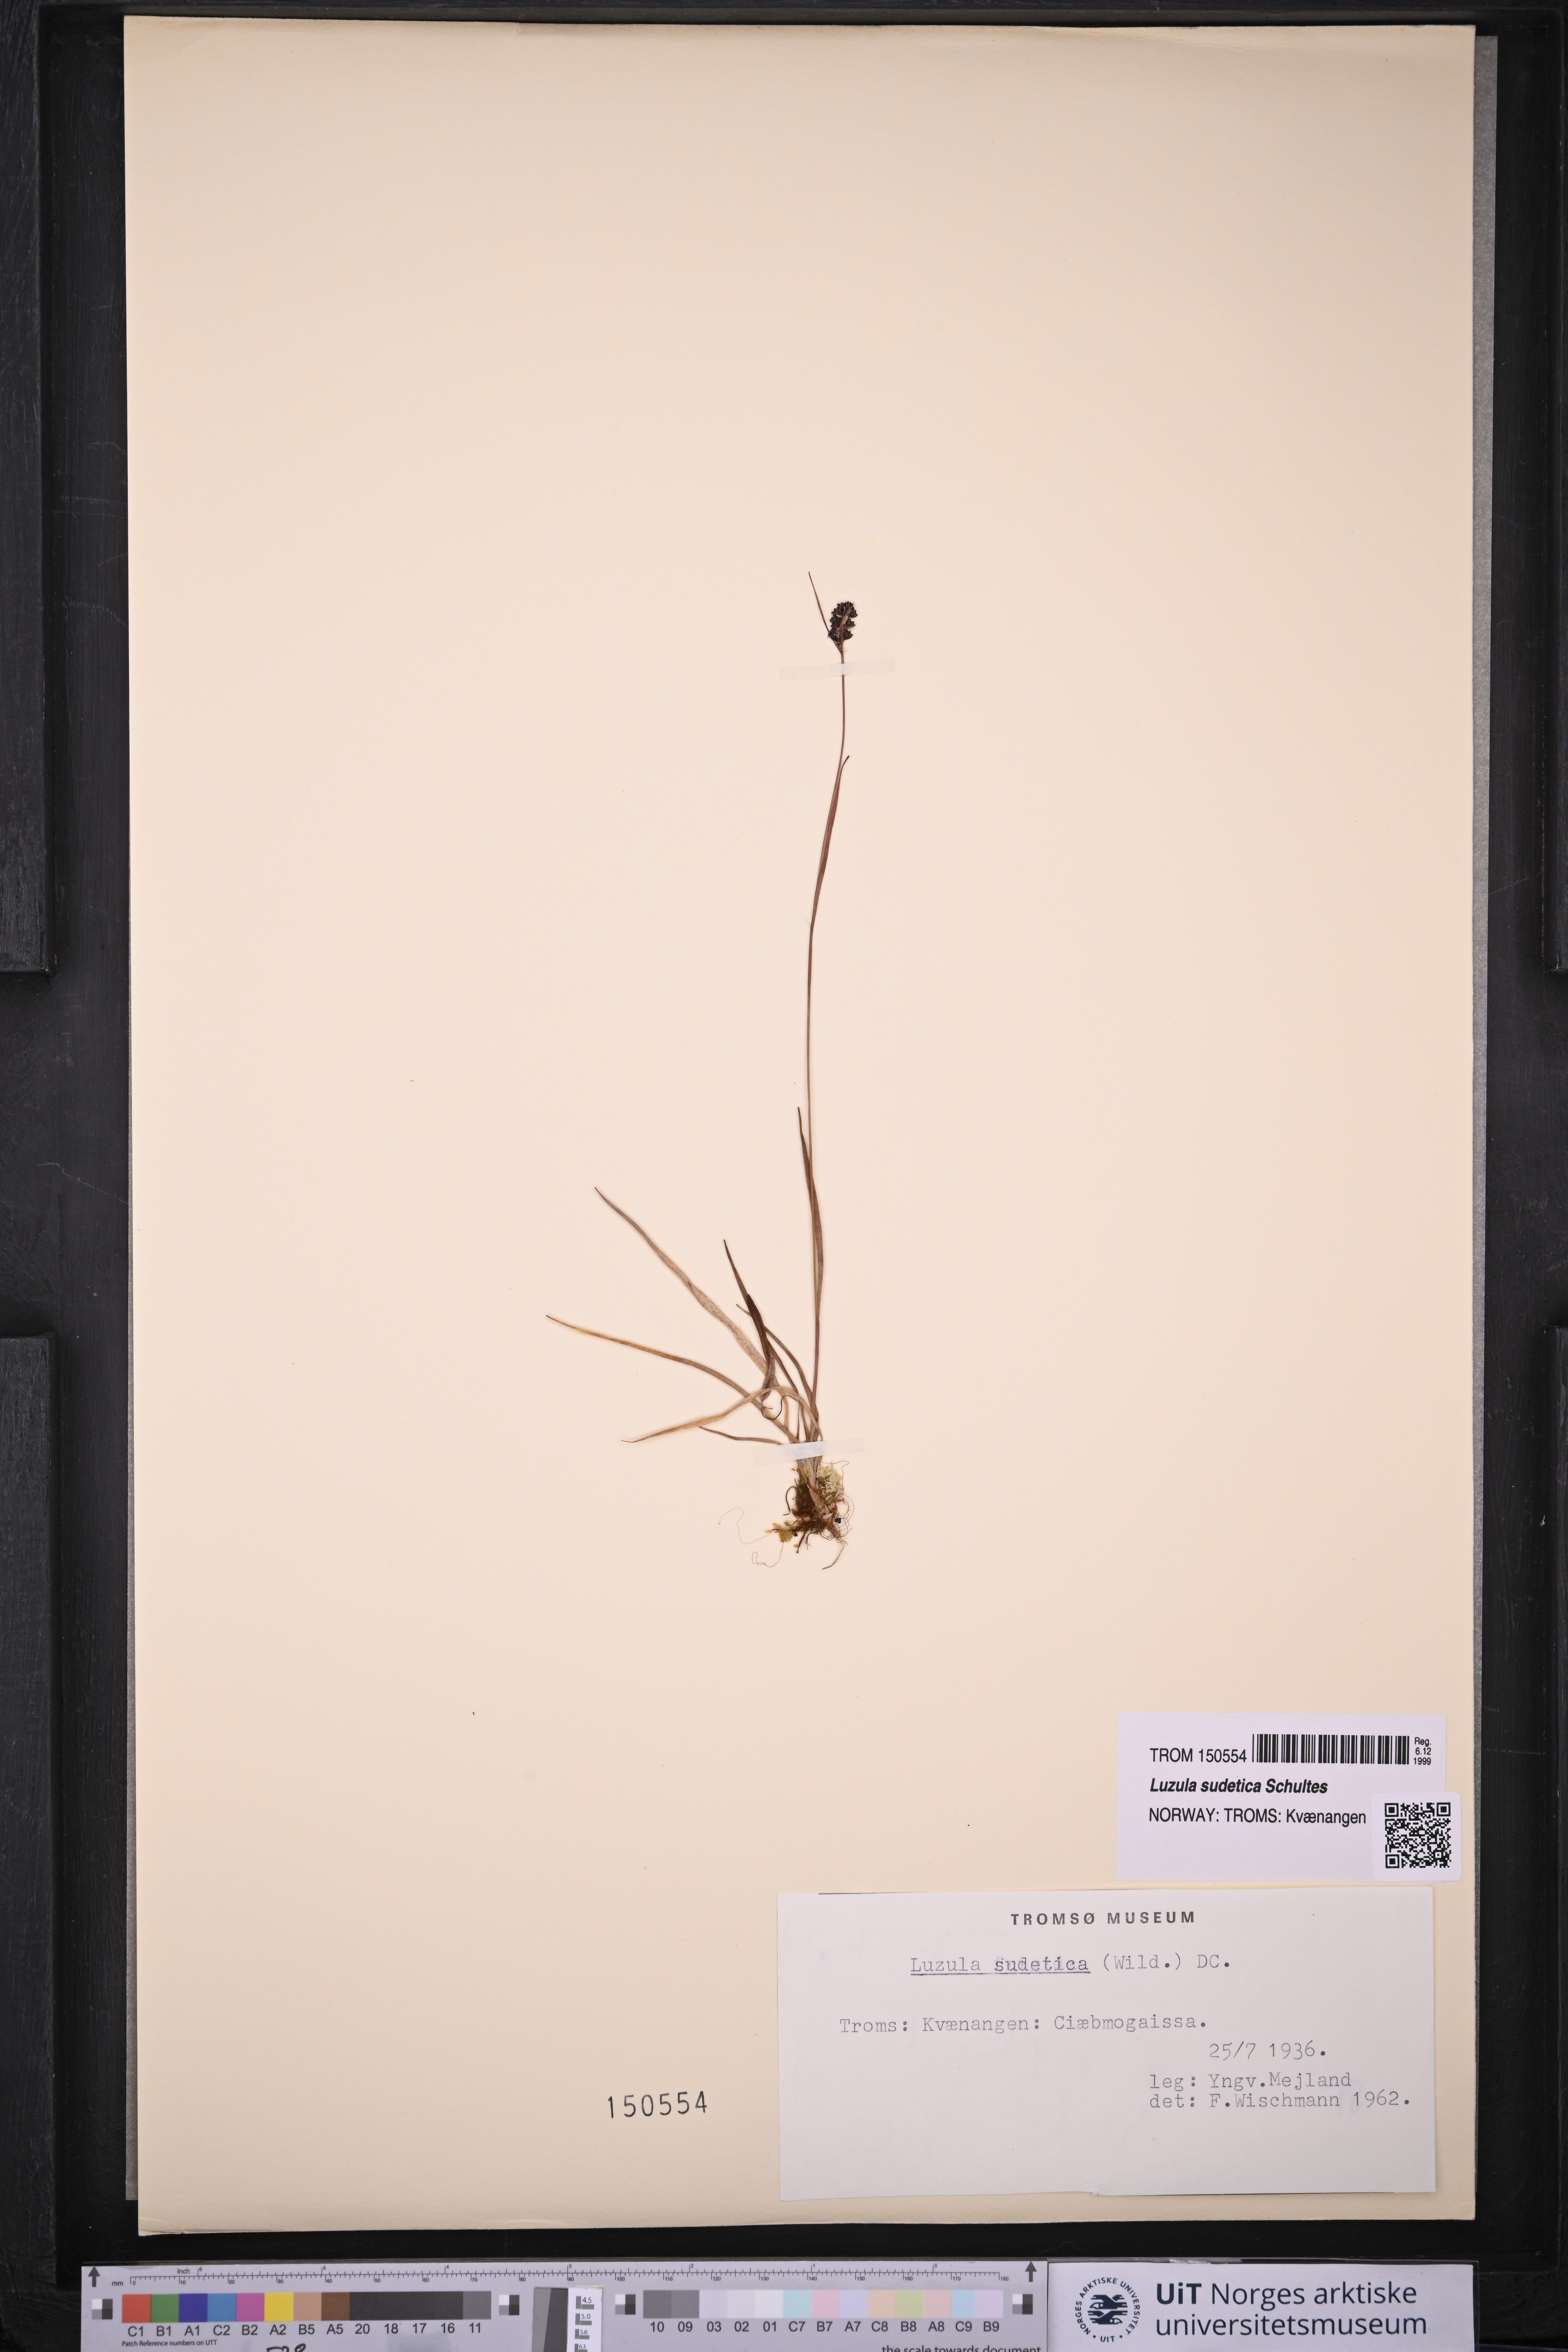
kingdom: Plantae
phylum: Tracheophyta
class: Liliopsida
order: Poales
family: Juncaceae
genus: Luzula
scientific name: Luzula sudetica
